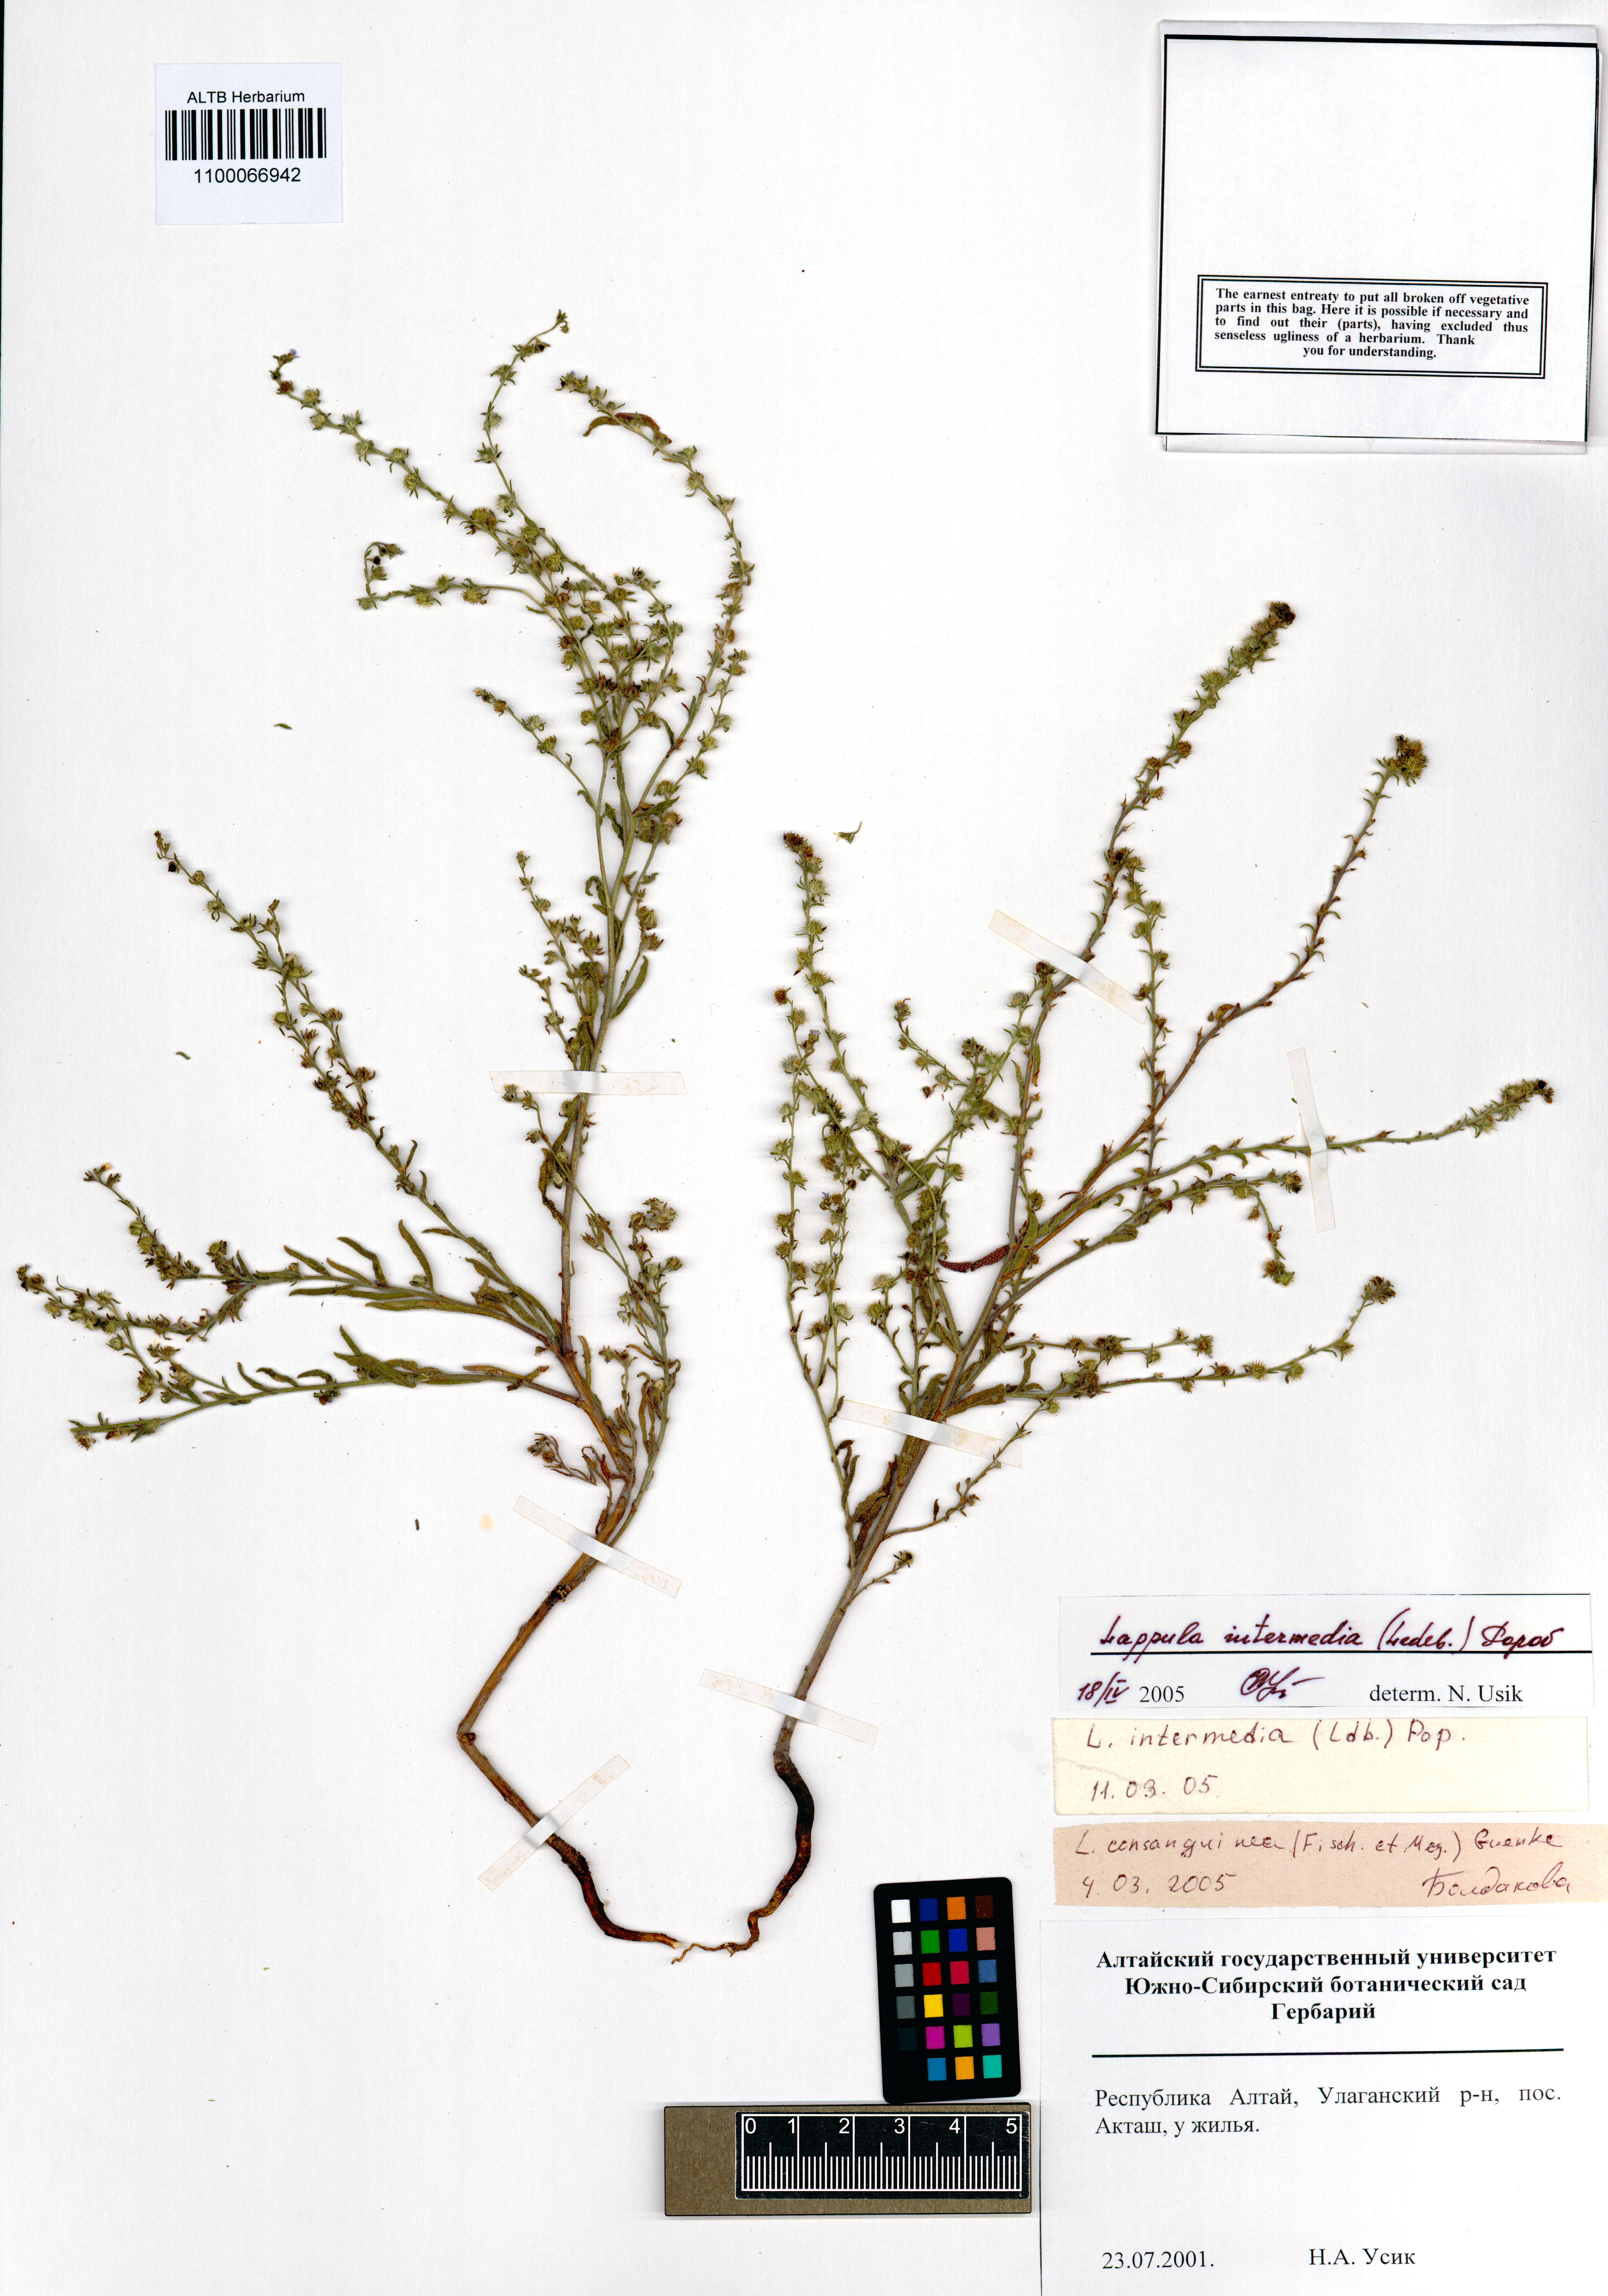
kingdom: Plantae
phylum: Tracheophyta
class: Magnoliopsida
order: Boraginales
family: Boraginaceae
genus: Lappula
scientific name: Lappula intermedia
